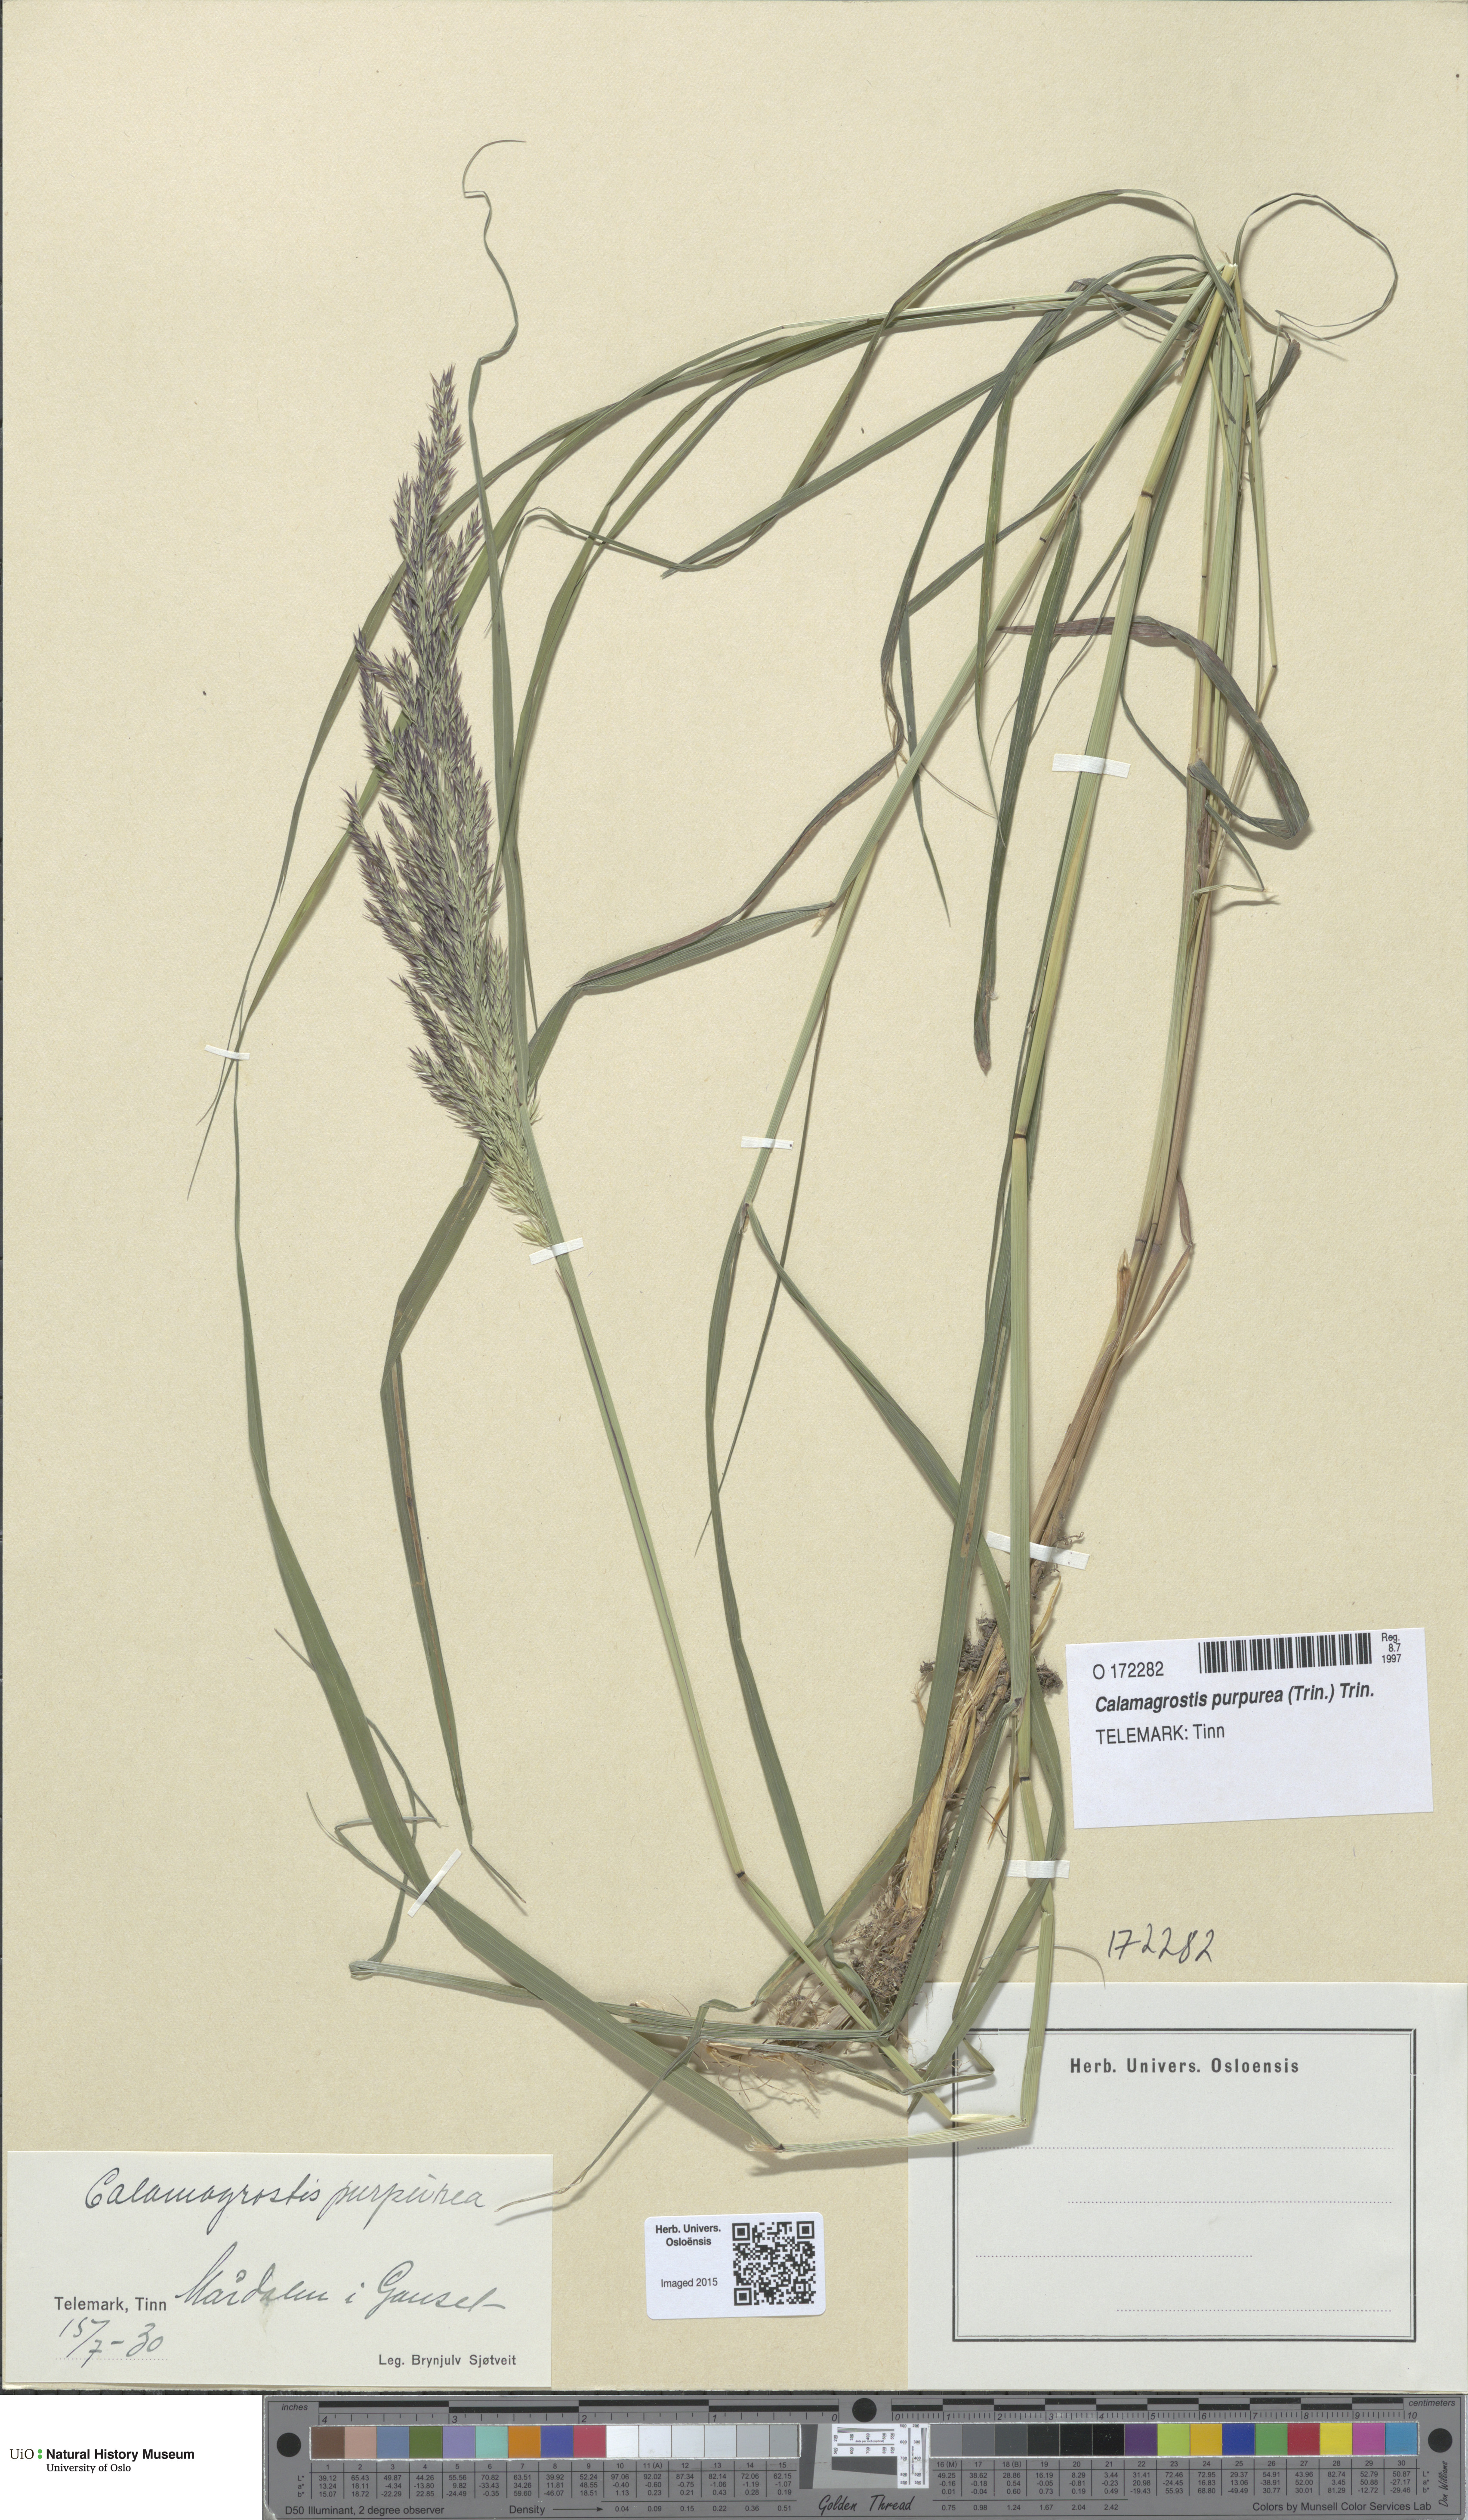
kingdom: Plantae
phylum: Tracheophyta
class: Liliopsida
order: Poales
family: Poaceae
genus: Calamagrostis
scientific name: Calamagrostis purpurea
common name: Scandinavian small-reed
